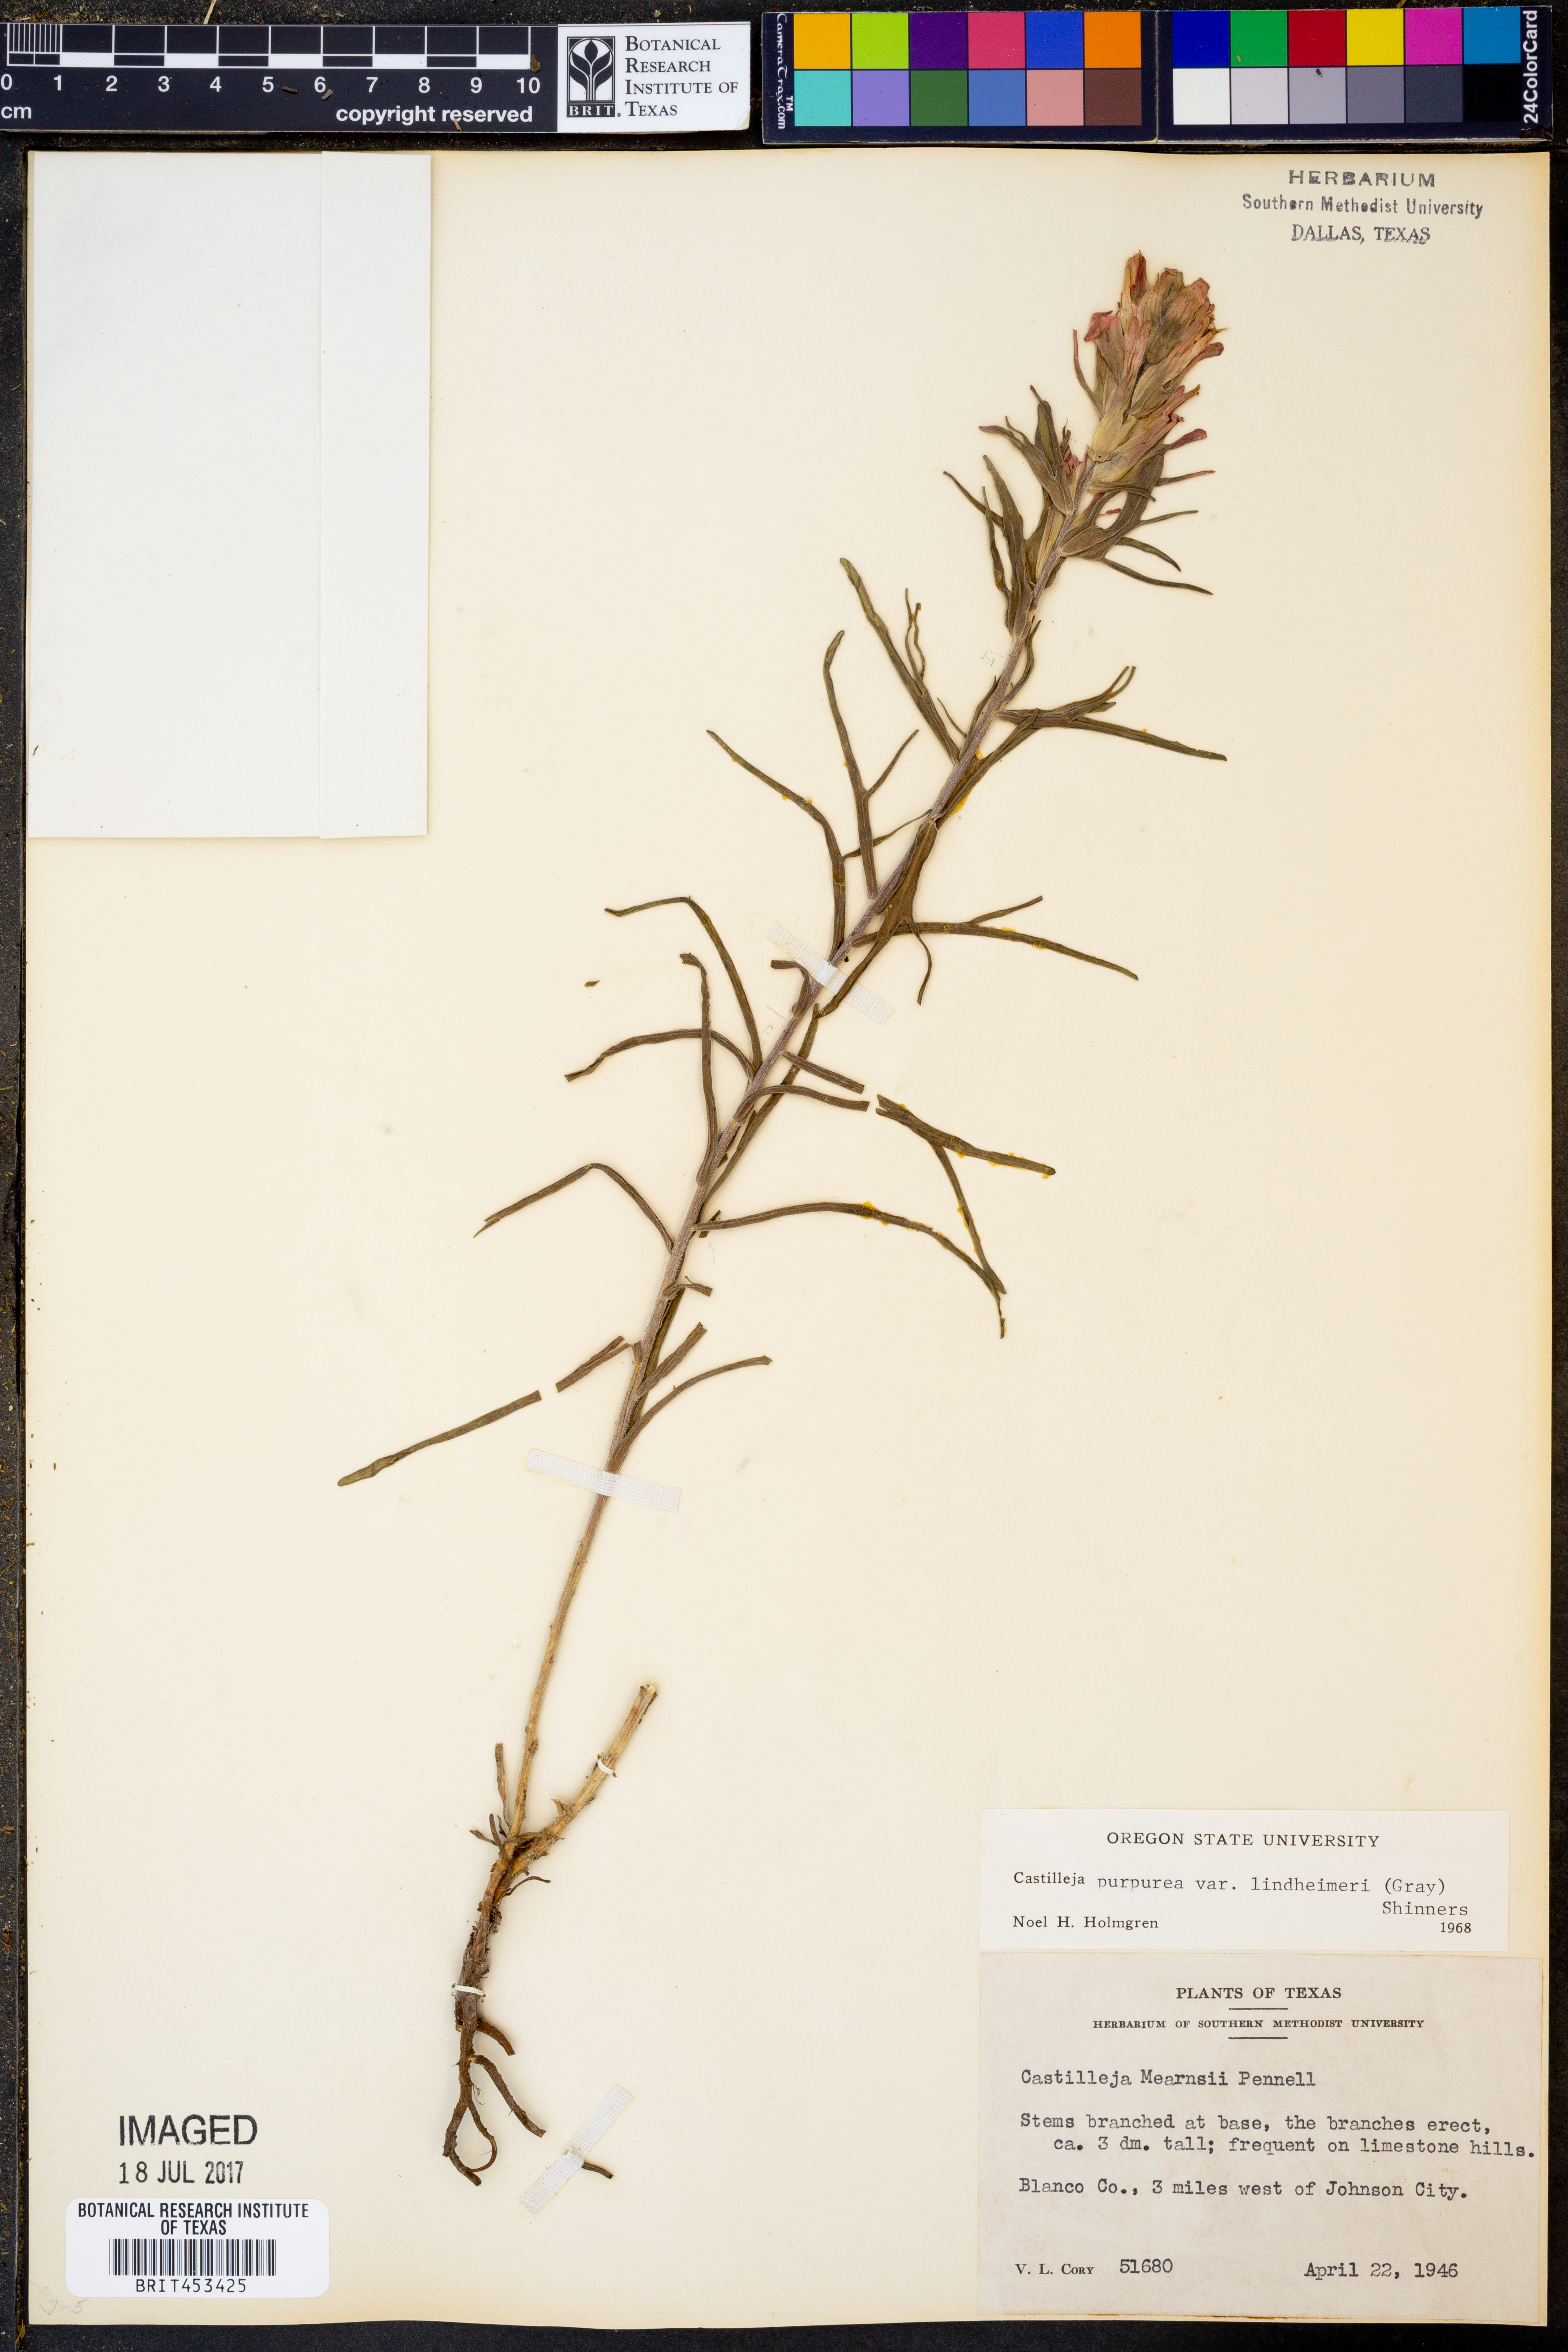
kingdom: Plantae
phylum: Tracheophyta
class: Magnoliopsida
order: Lamiales
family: Orobanchaceae
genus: Castilleja
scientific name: Castilleja lindheimeri
